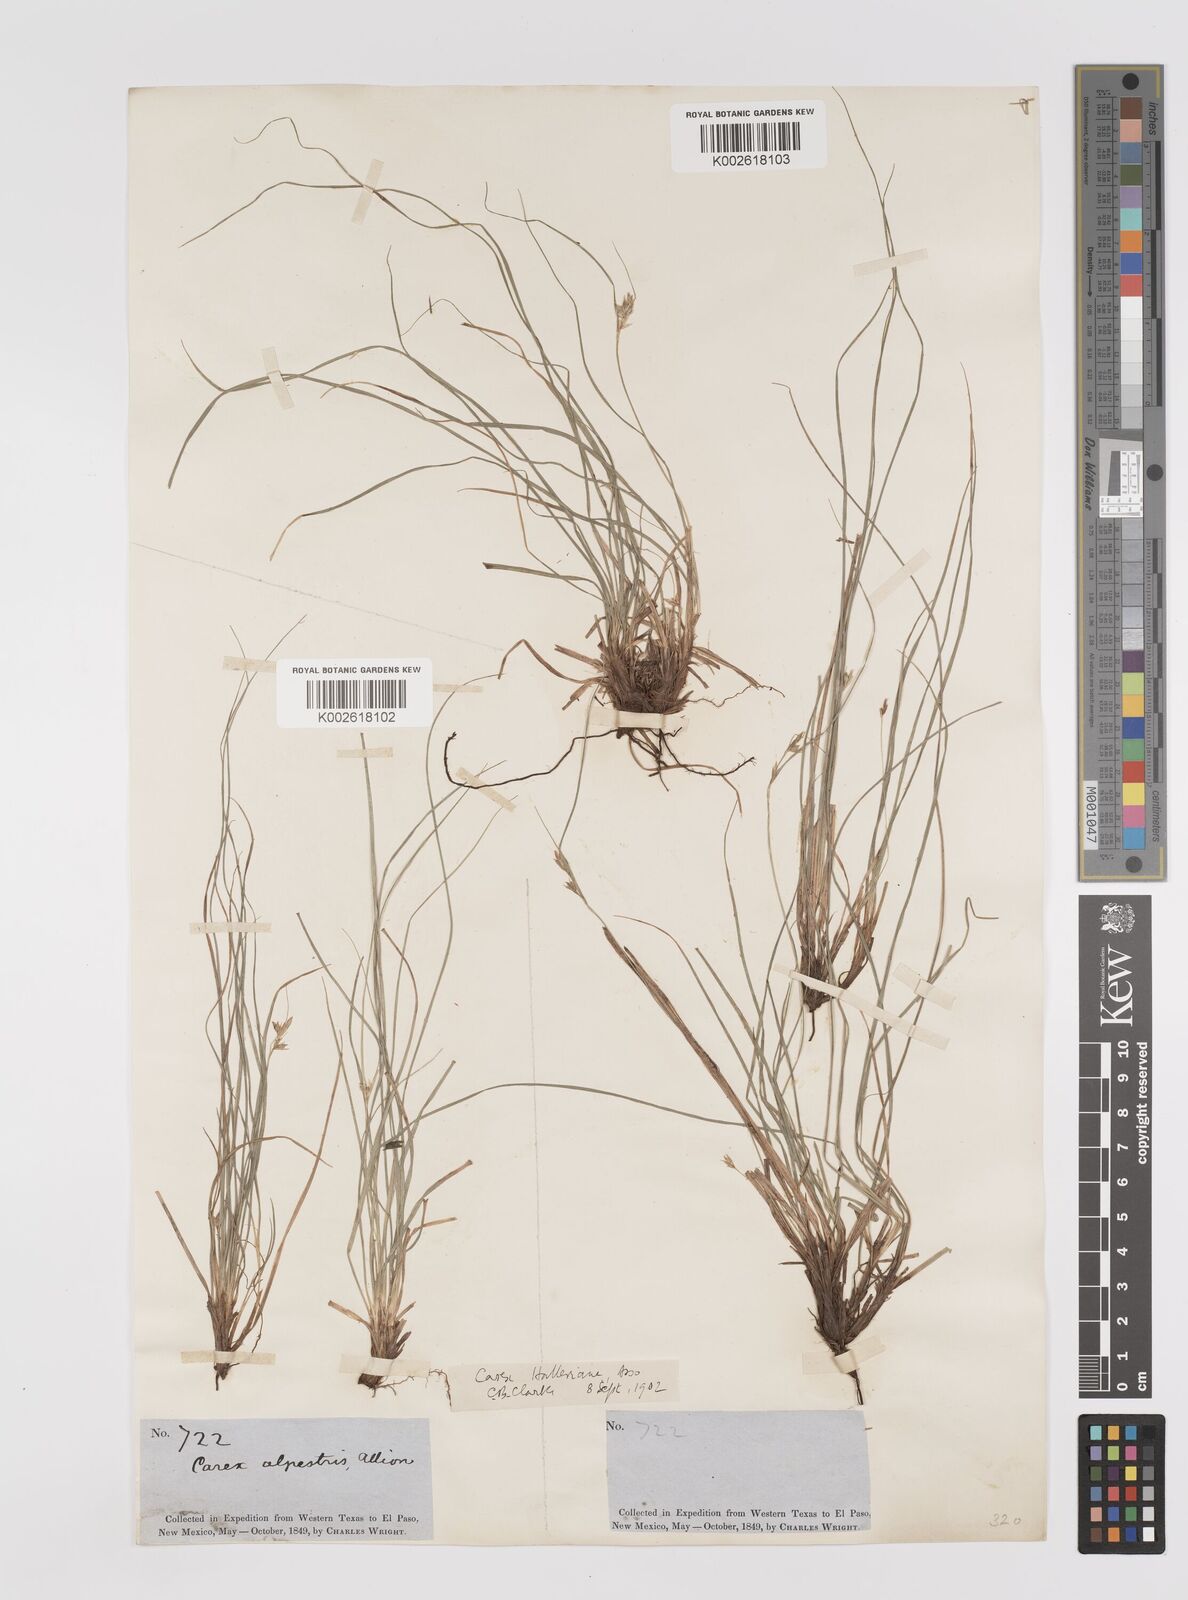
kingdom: Plantae
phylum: Tracheophyta
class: Liliopsida
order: Poales
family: Cyperaceae
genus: Carex
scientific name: Carex planostachys
